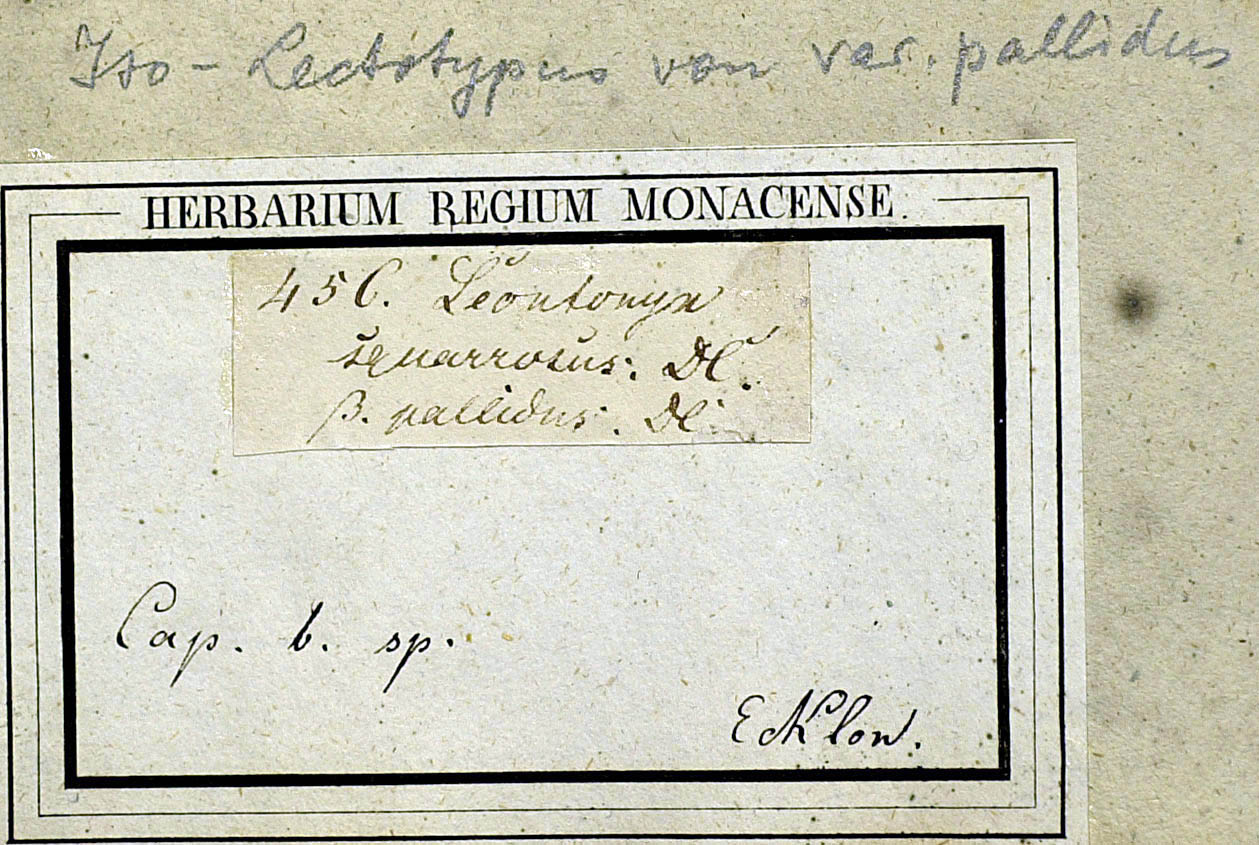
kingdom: Plantae
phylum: Tracheophyta
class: Magnoliopsida
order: Asterales
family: Asteraceae
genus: Helichrysum
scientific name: Helichrysum spiralepis
